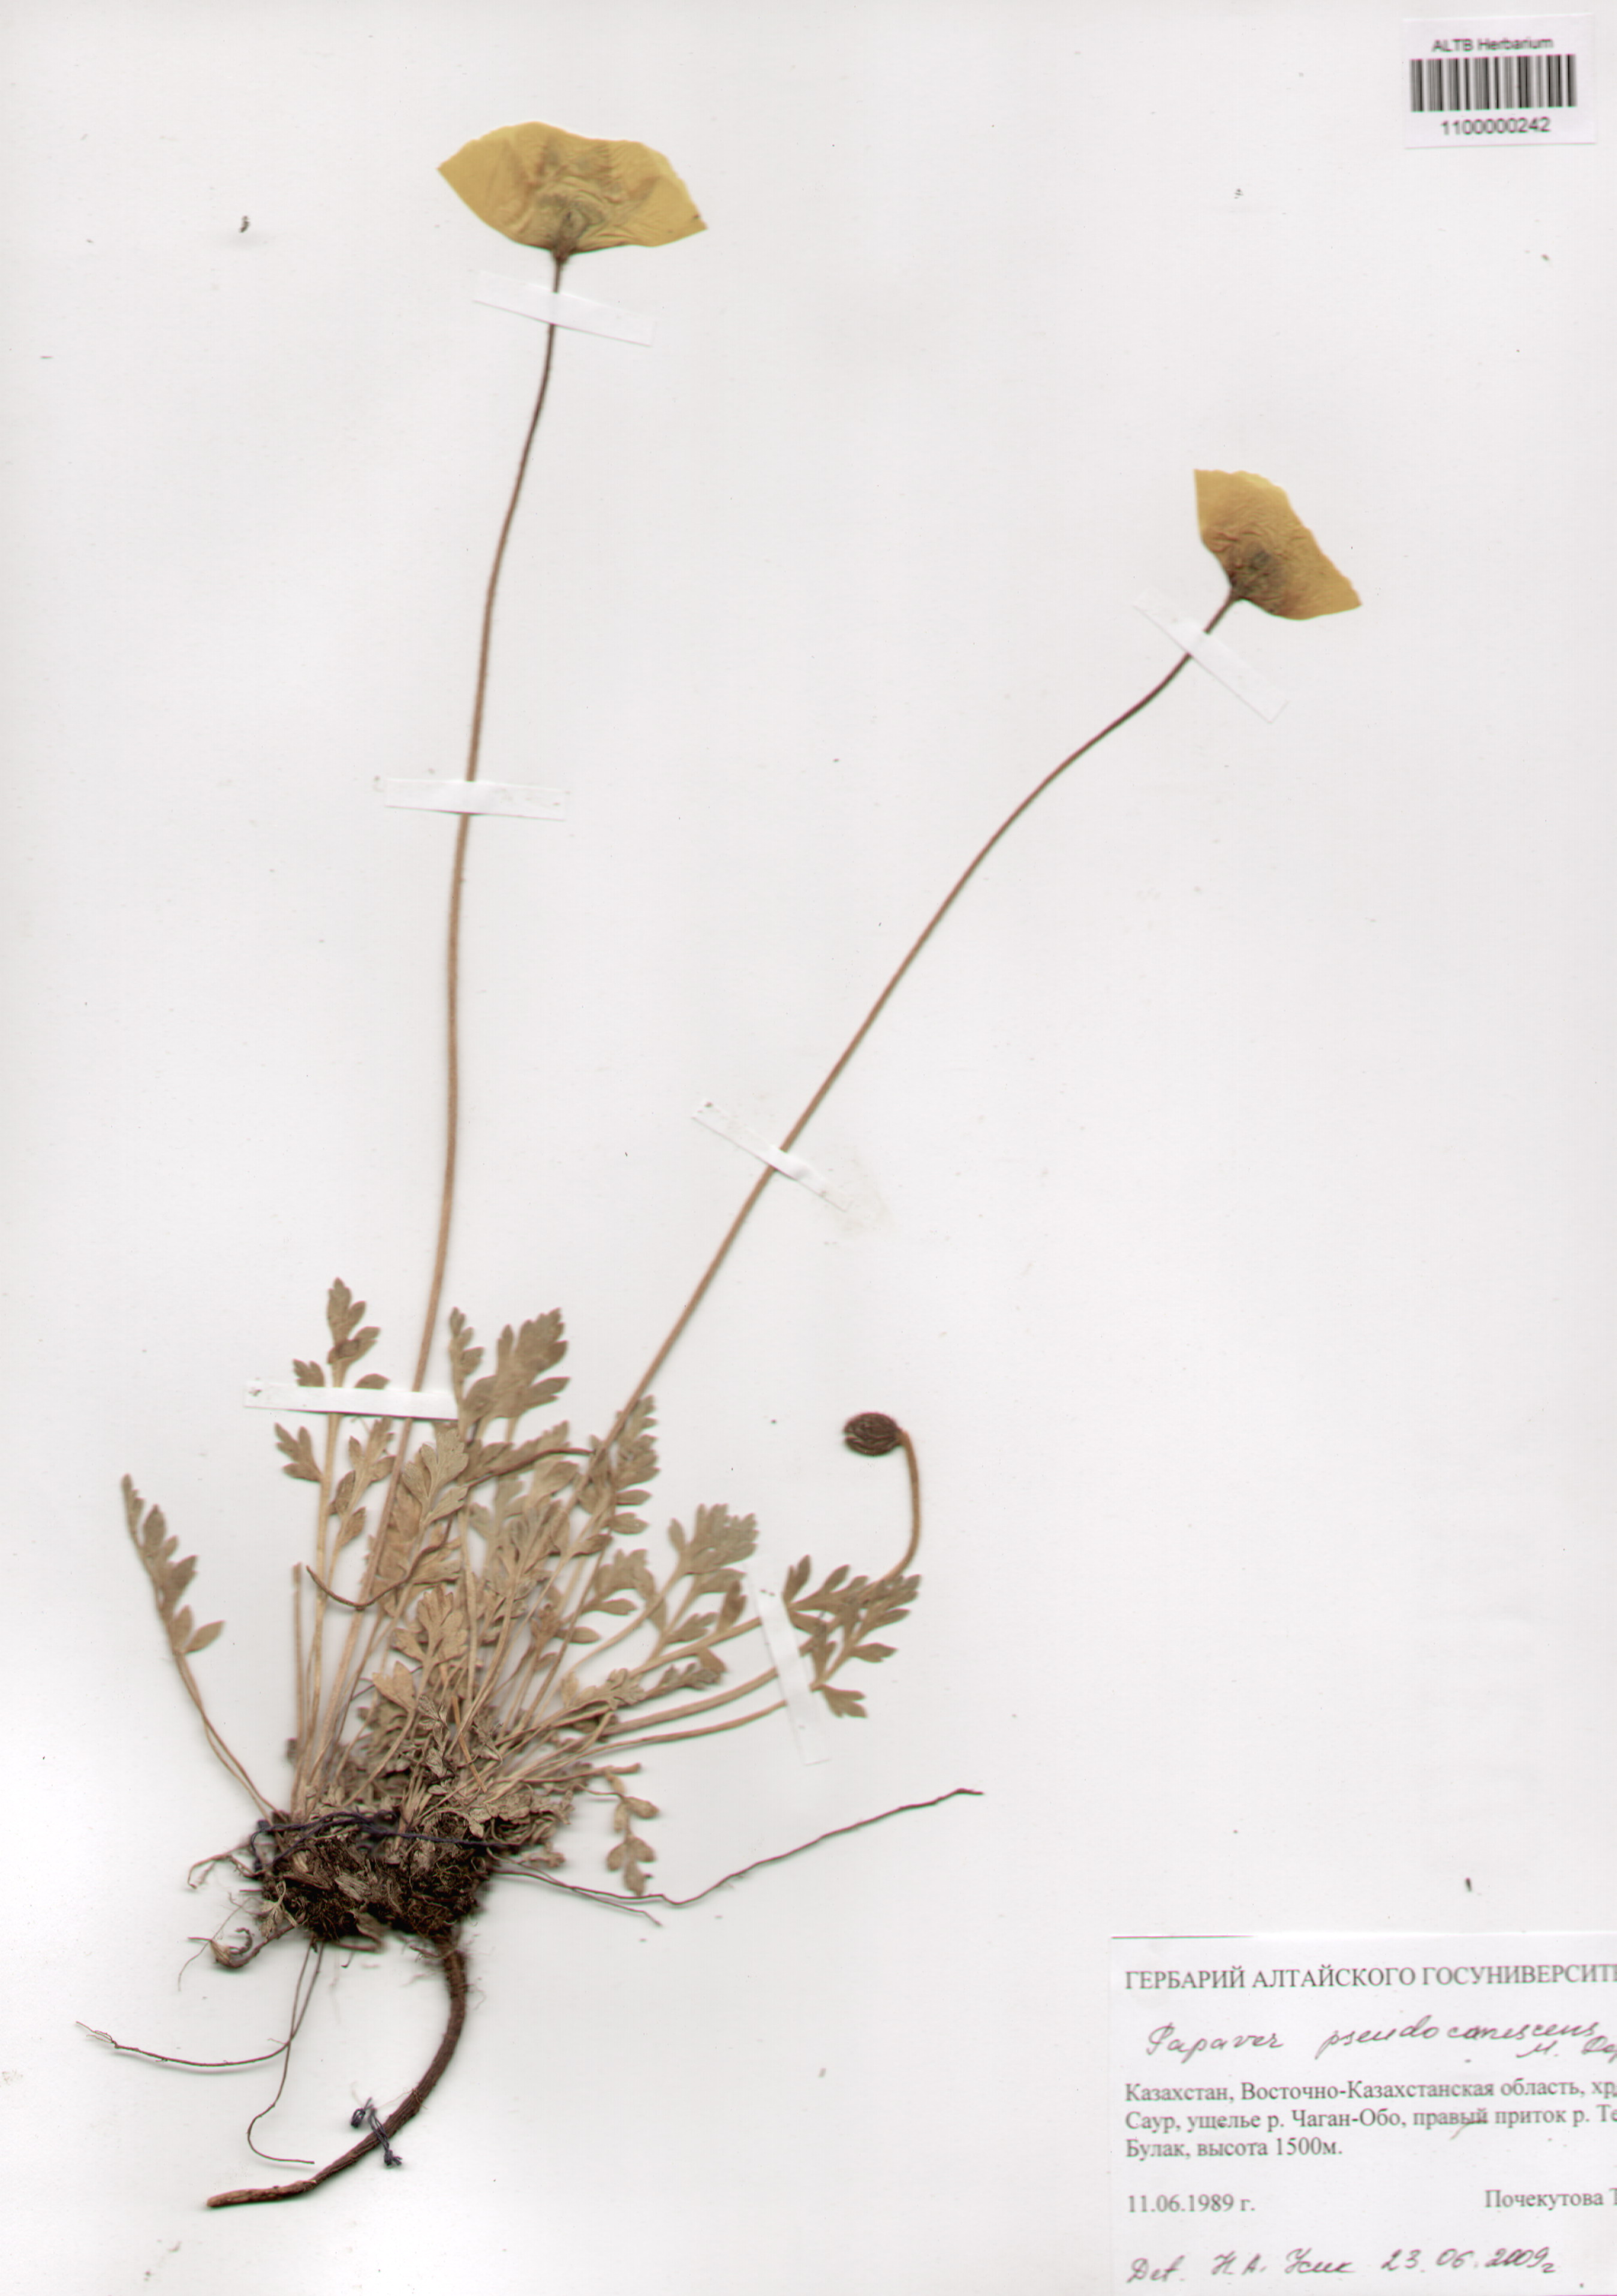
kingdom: Plantae
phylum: Tracheophyta
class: Magnoliopsida
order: Ranunculales
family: Papaveraceae
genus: Papaver
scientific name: Papaver canescens
